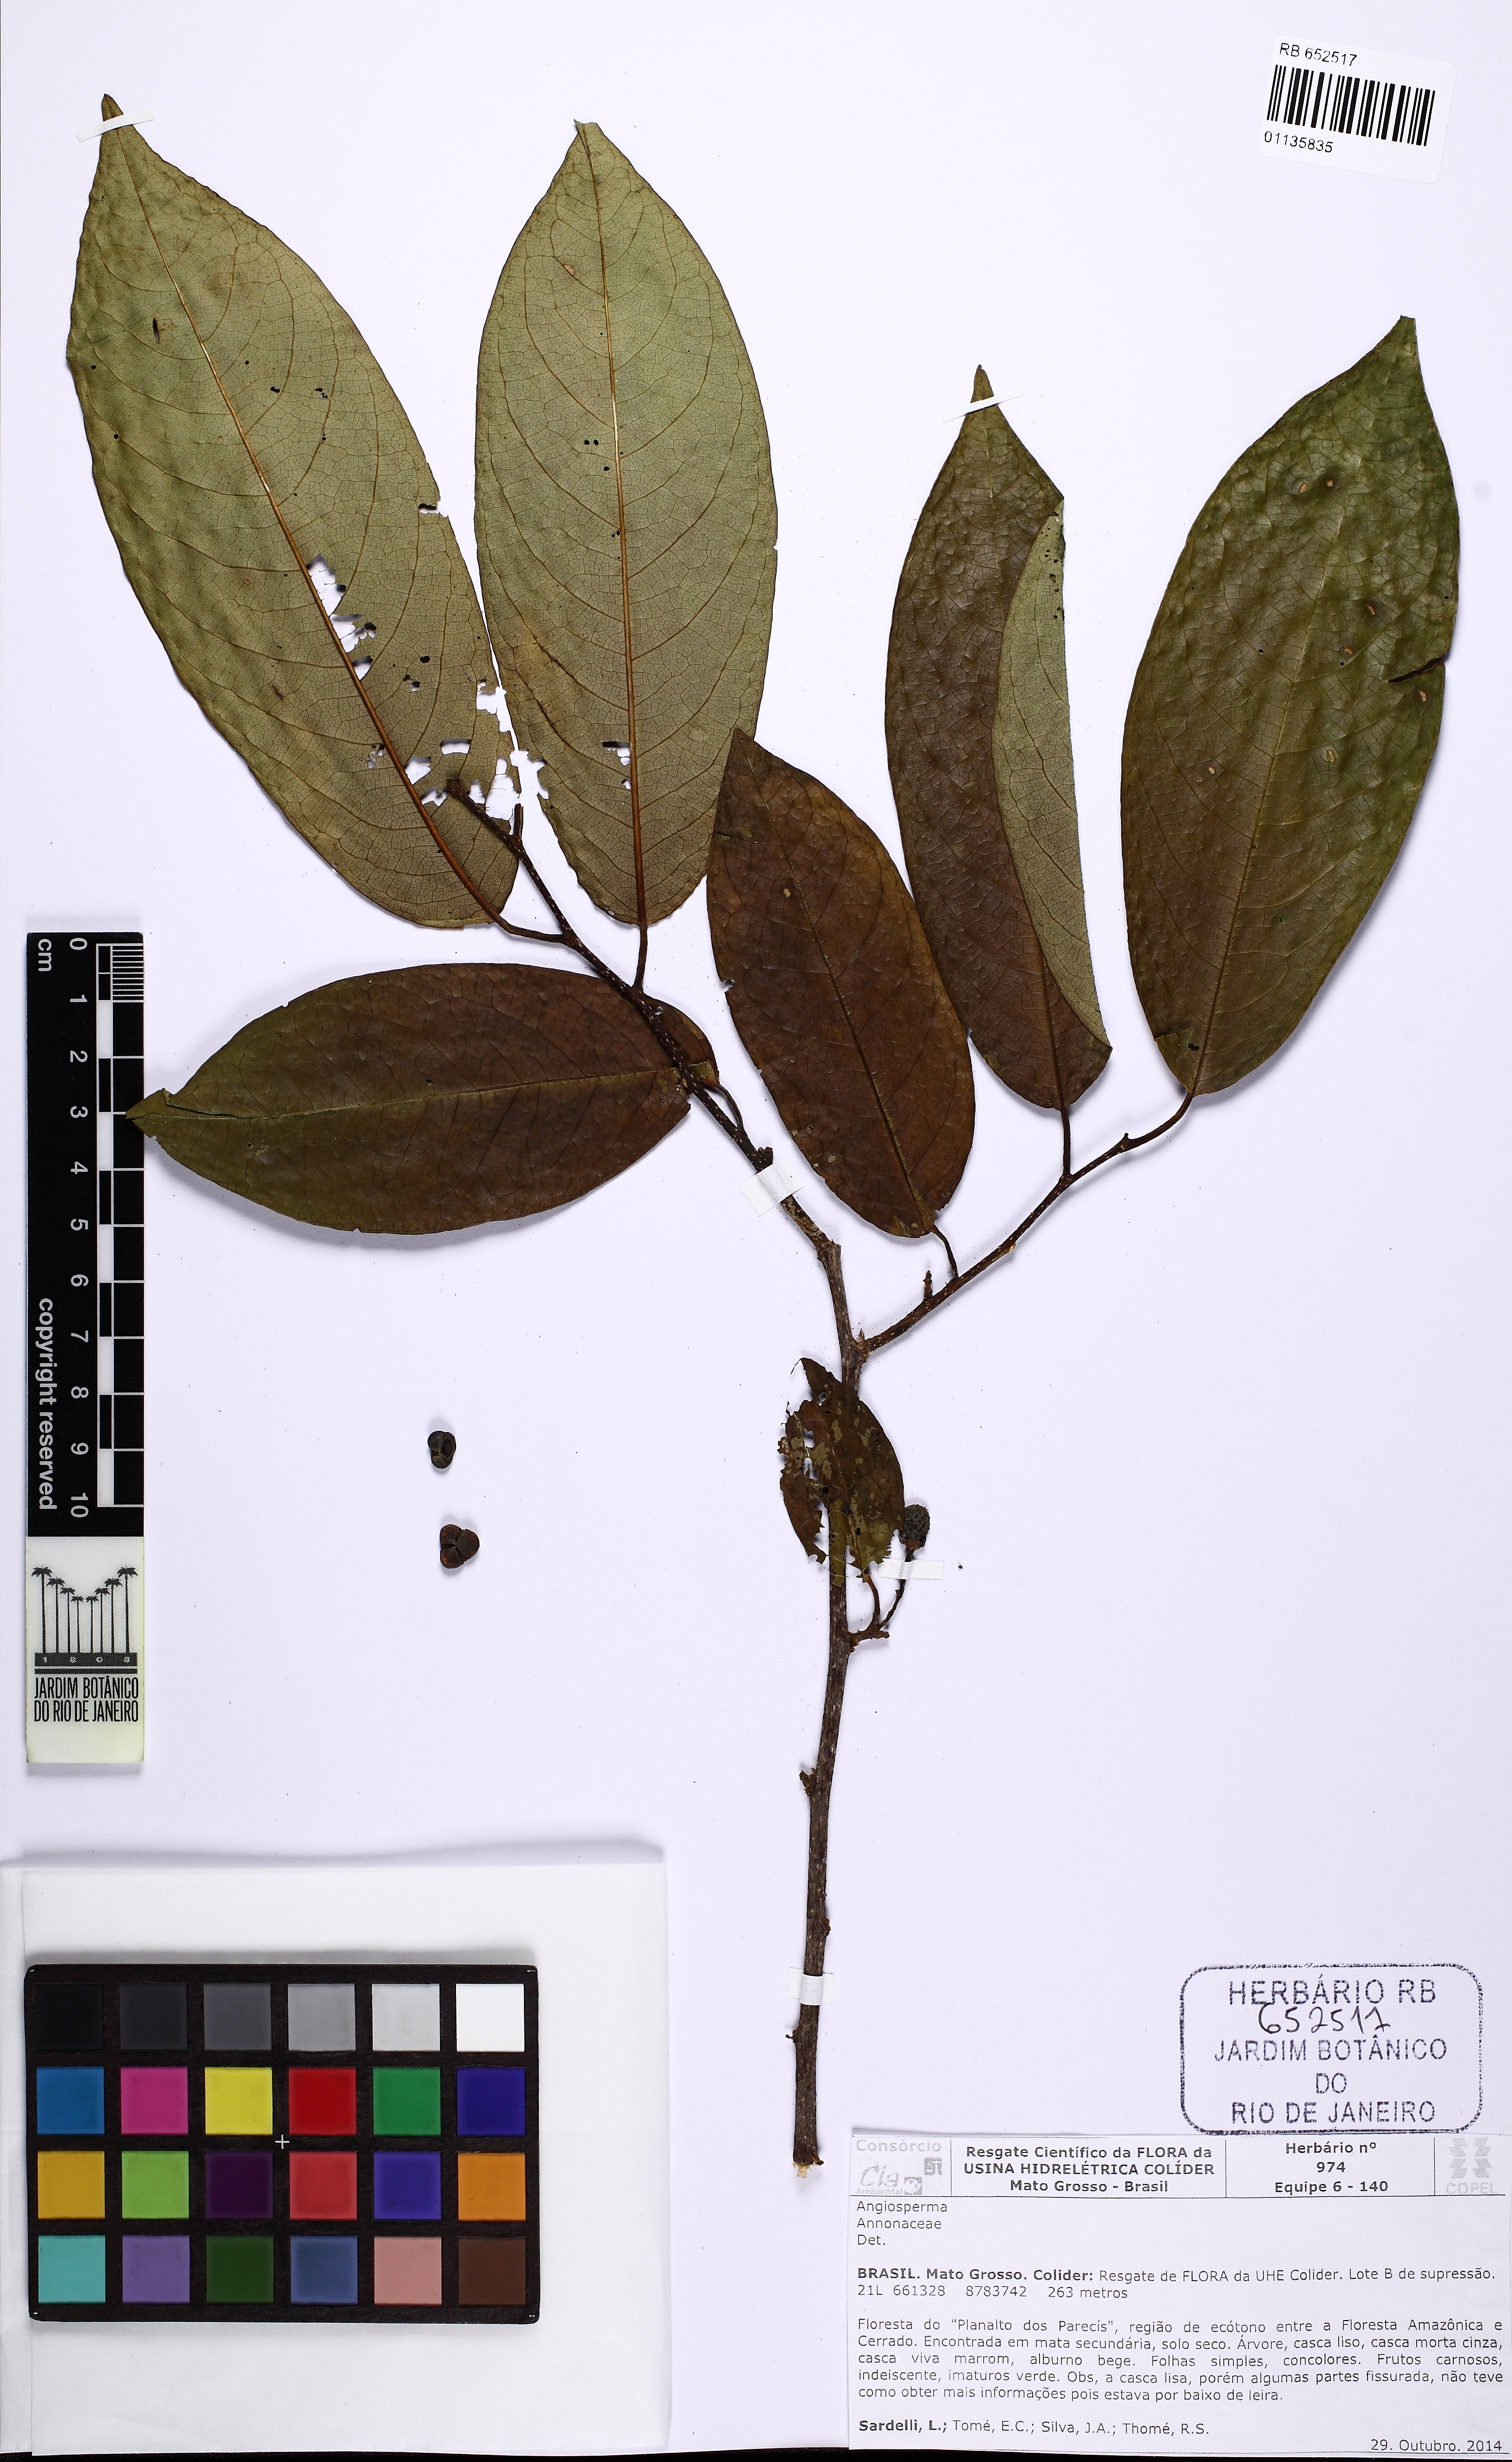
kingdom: Plantae
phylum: Tracheophyta
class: Magnoliopsida
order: Magnoliales
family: Annonaceae
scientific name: Annonaceae
